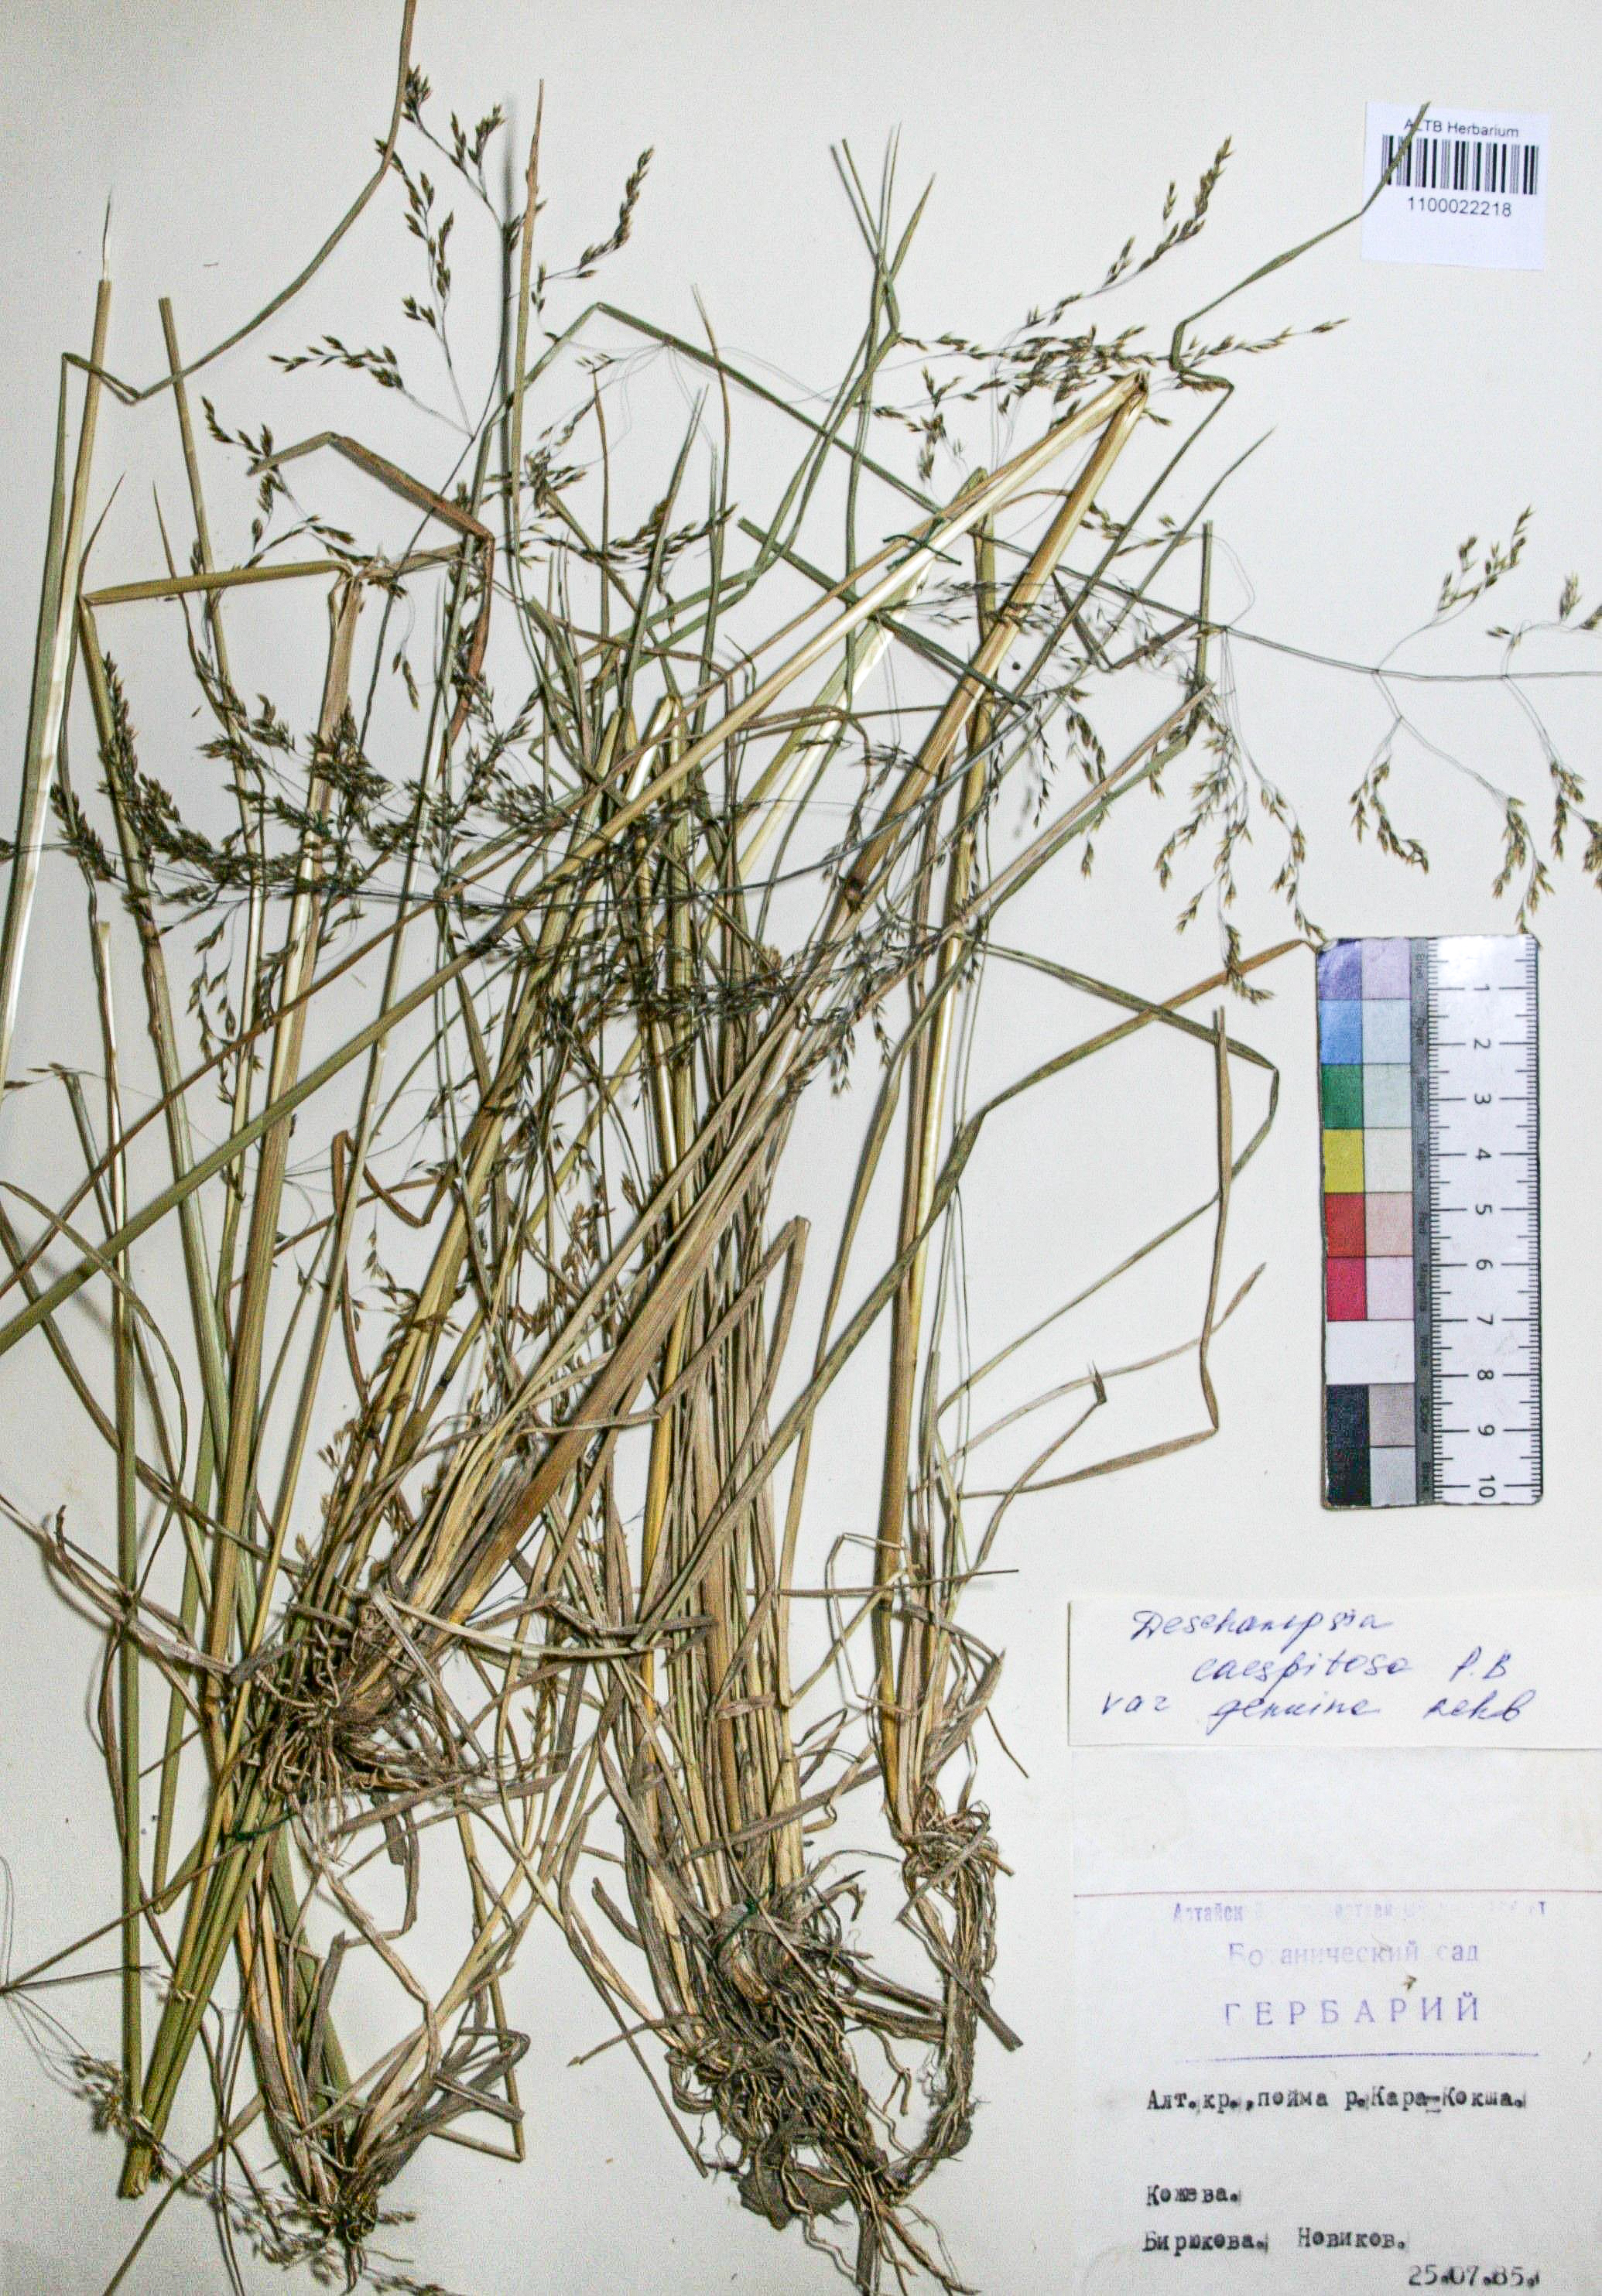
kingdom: Plantae
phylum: Tracheophyta
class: Liliopsida
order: Poales
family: Poaceae
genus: Deschampsia
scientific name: Deschampsia cespitosa
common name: Tufted hair-grass
